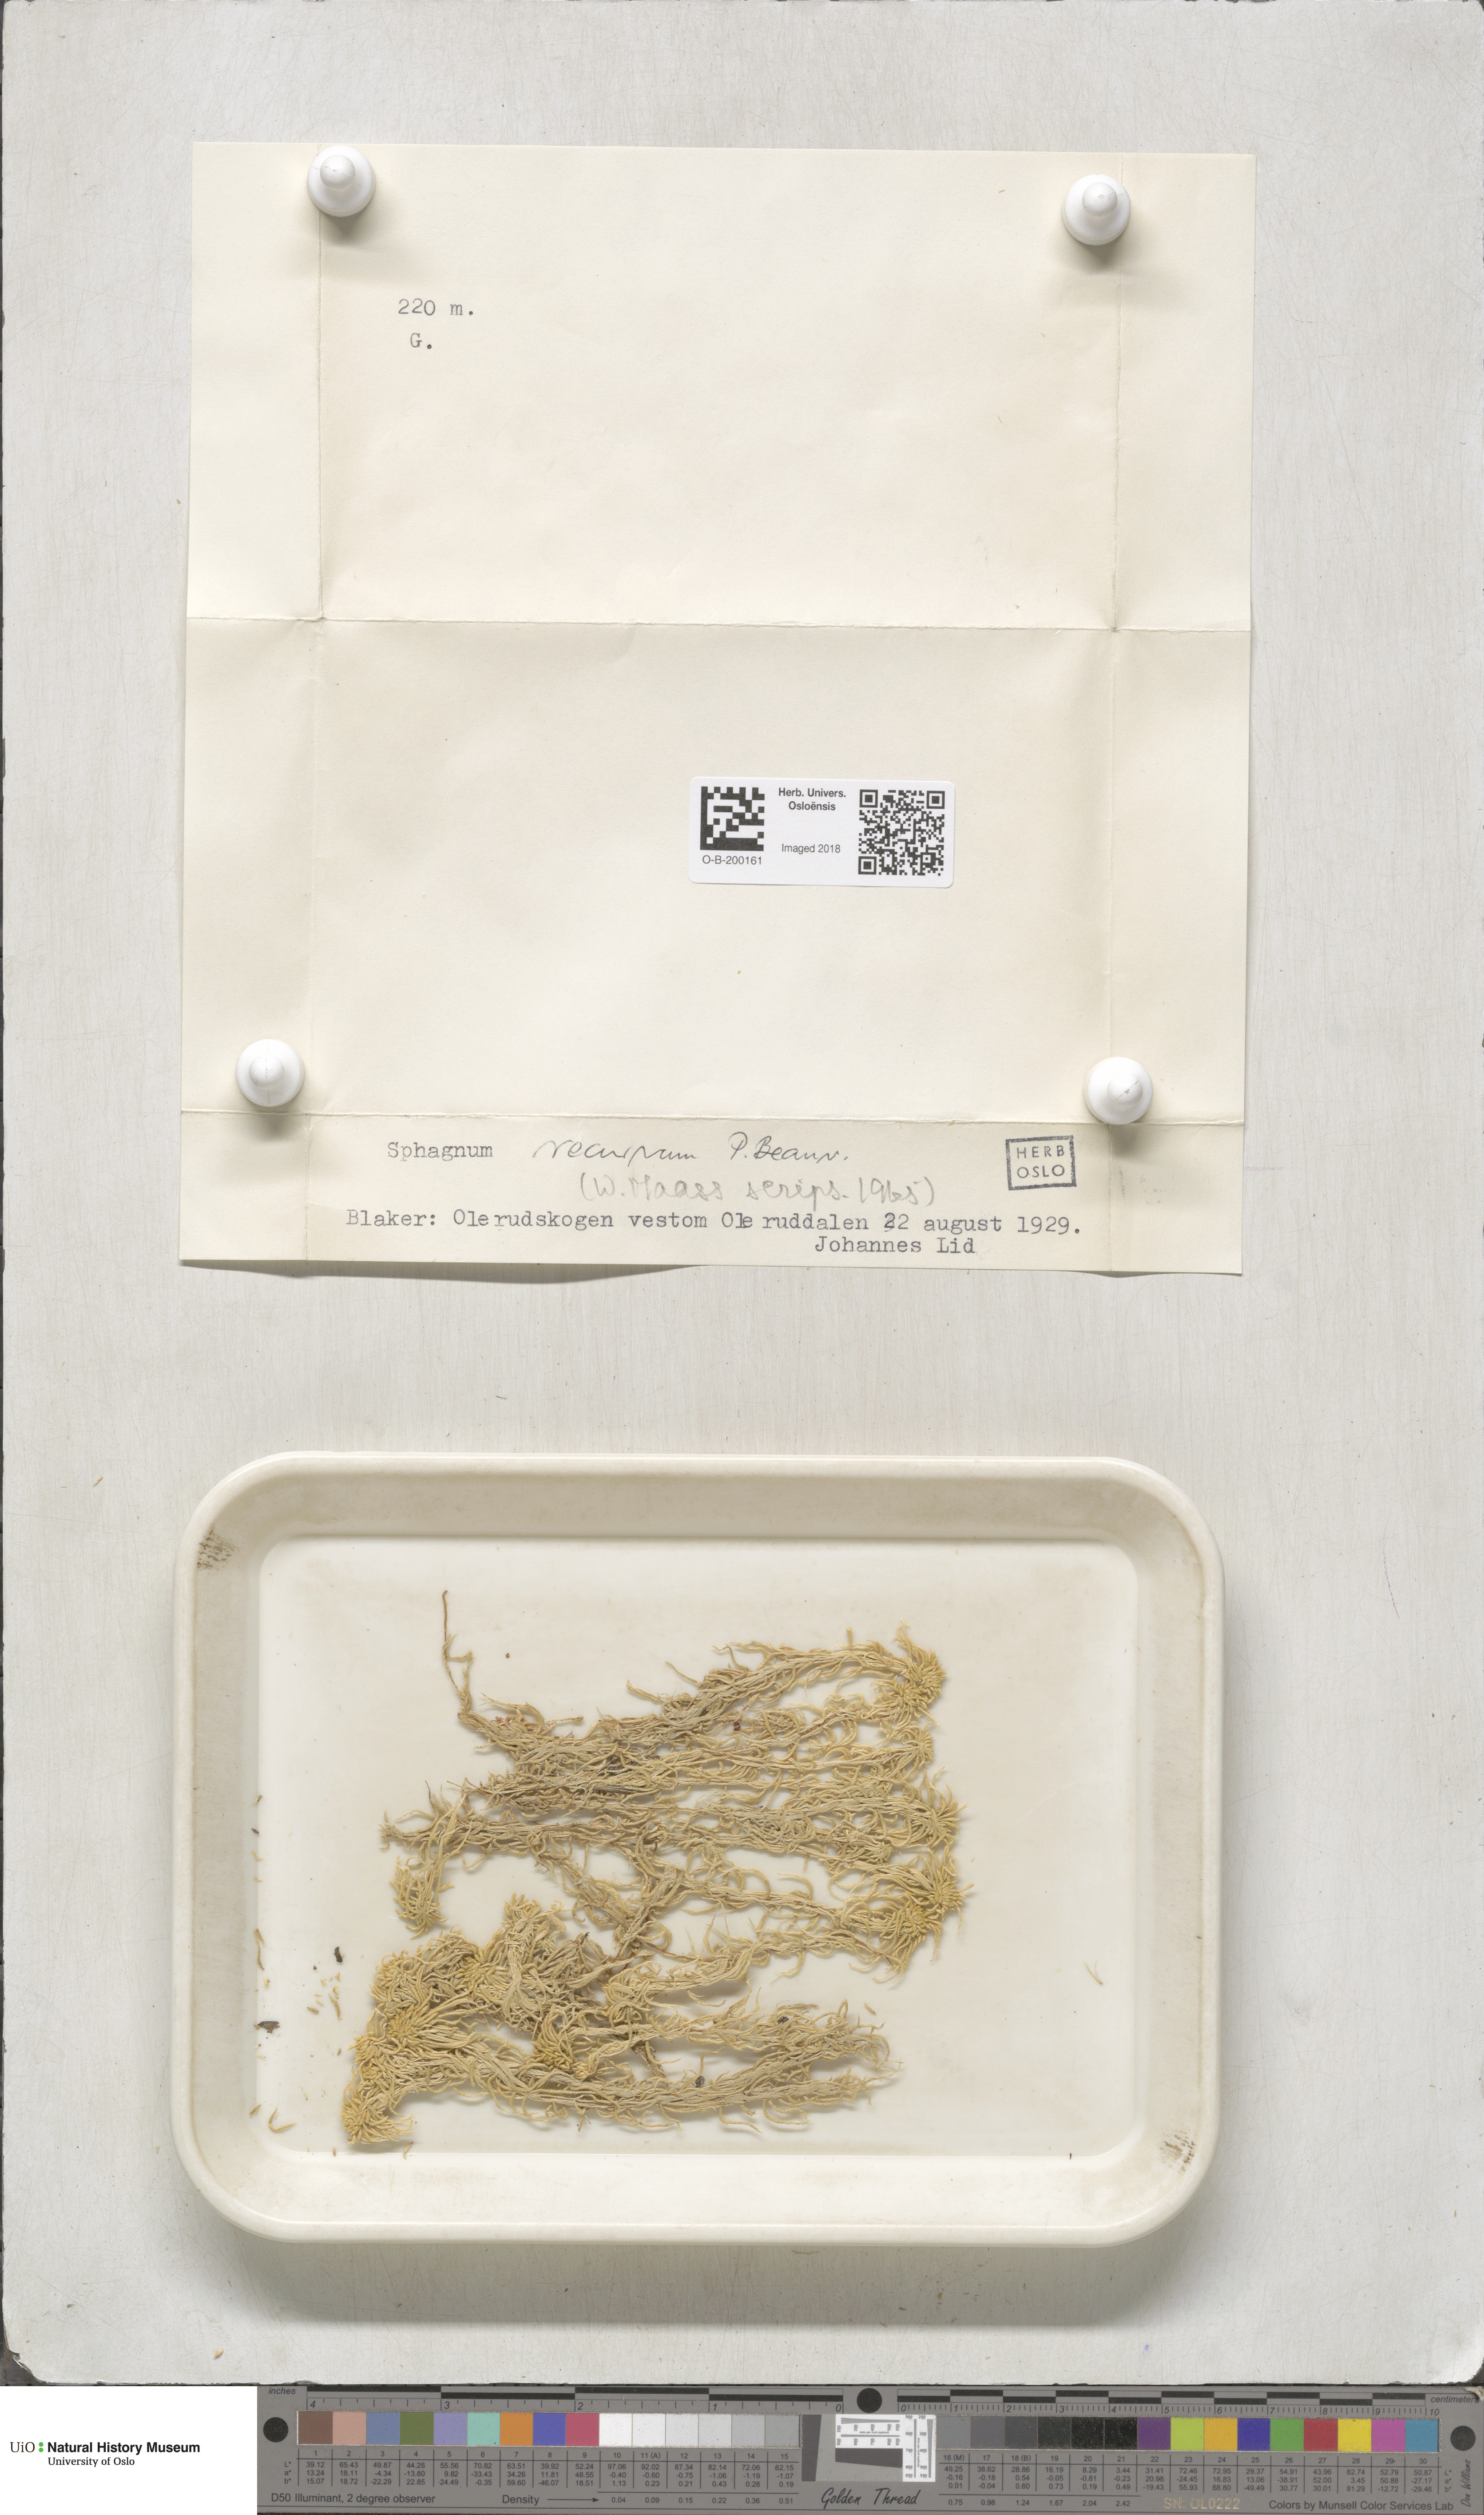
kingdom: Plantae
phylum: Bryophyta
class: Sphagnopsida
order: Sphagnales
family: Sphagnaceae
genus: Sphagnum
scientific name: Sphagnum fallax
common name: Flat-top peat moss
